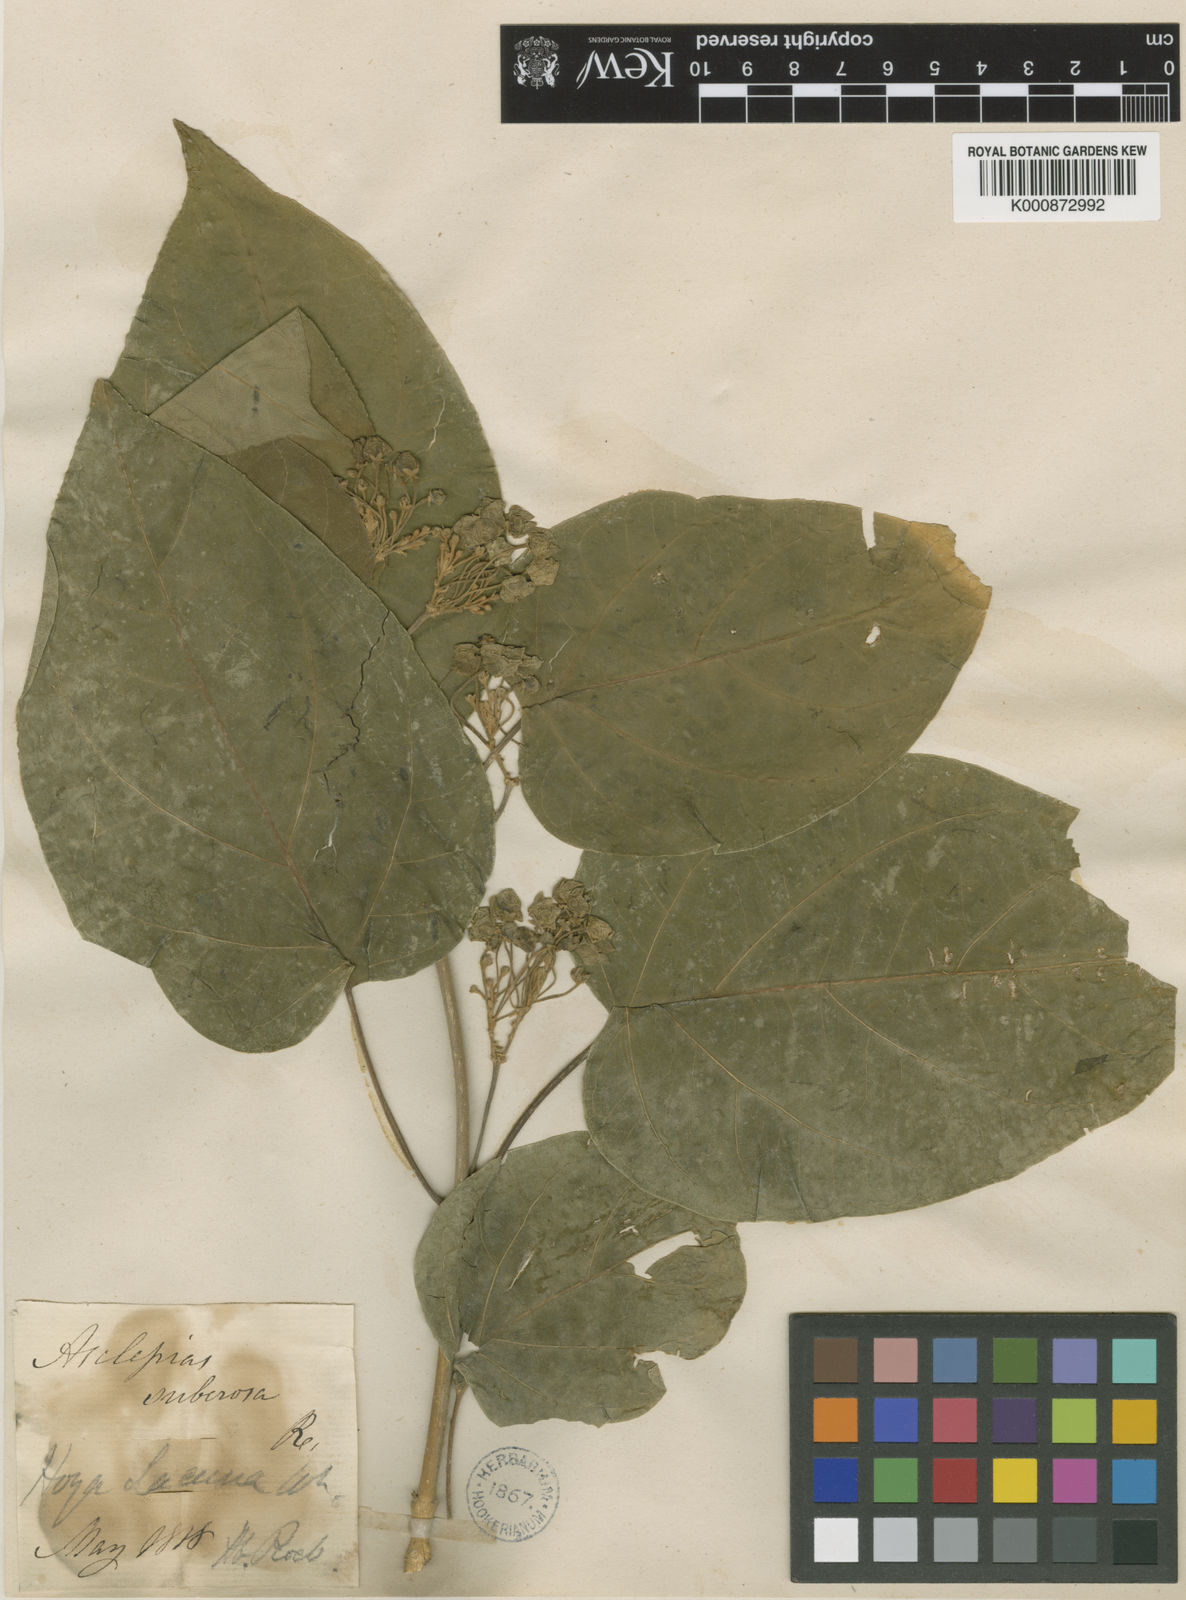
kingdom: Plantae
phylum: Tracheophyta
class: Magnoliopsida
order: Gentianales
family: Apocynaceae
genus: Stephanotis
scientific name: Stephanotis volubilis
